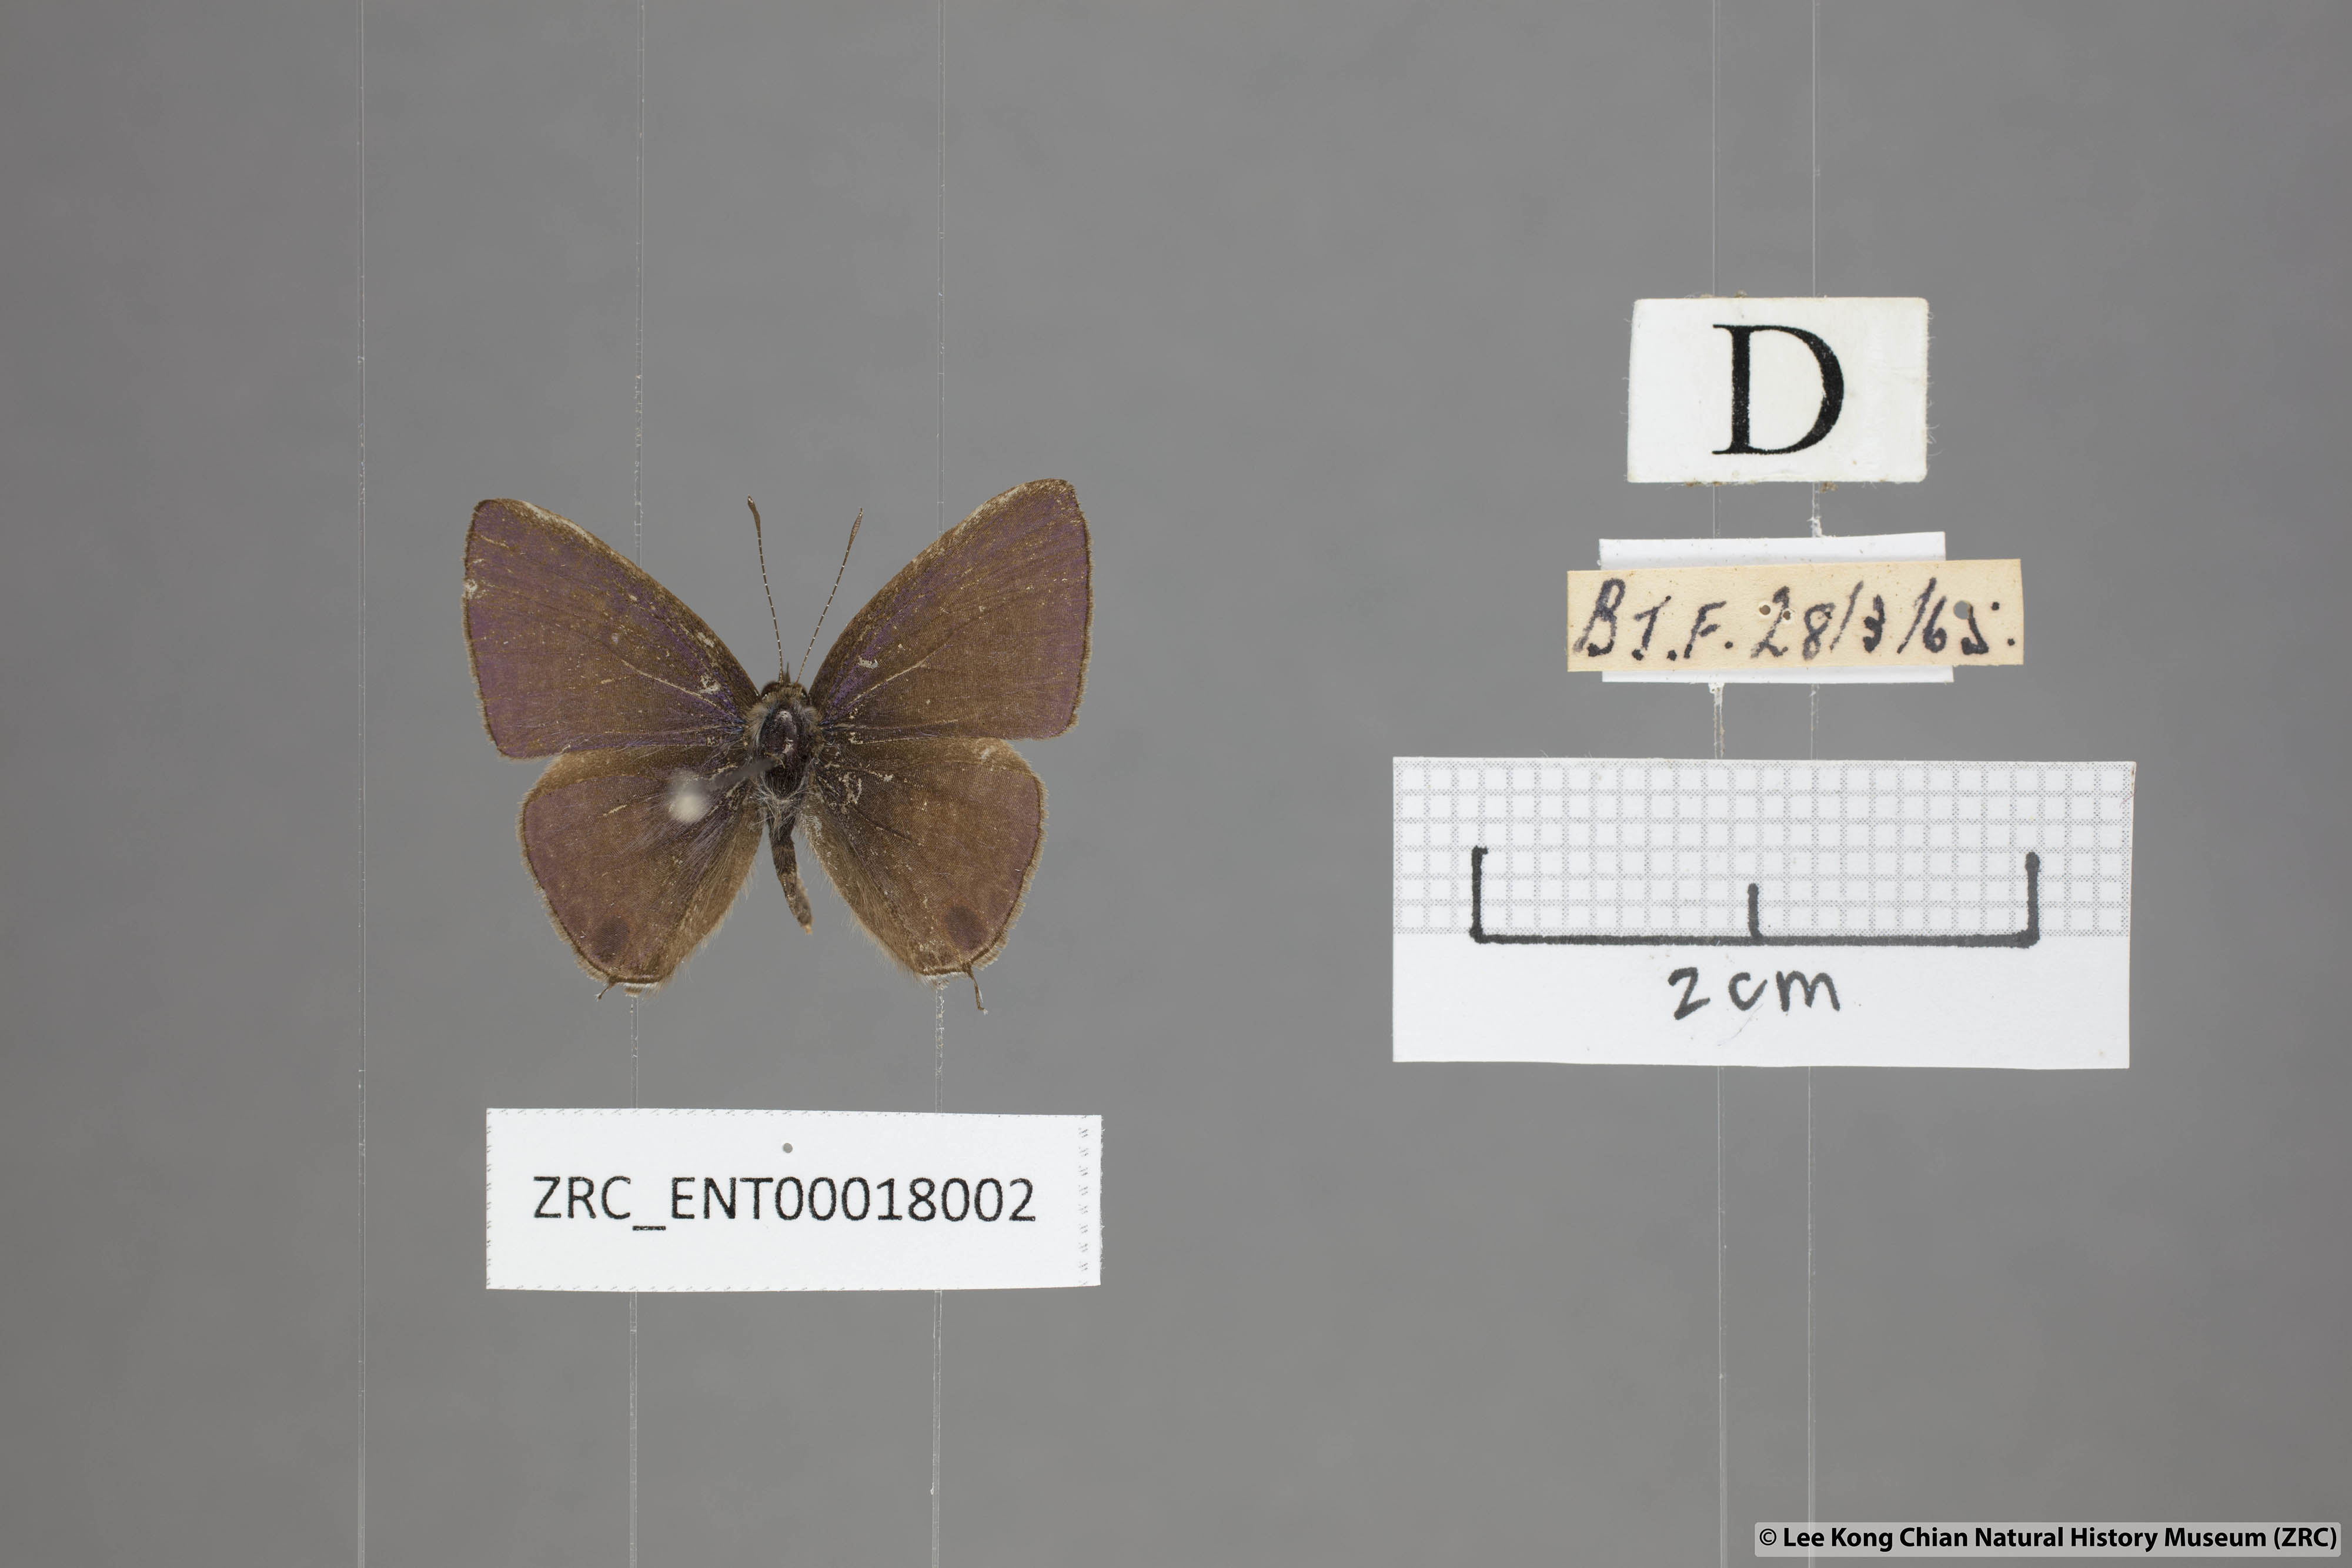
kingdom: Animalia
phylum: Arthropoda
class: Insecta
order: Lepidoptera
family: Lycaenidae
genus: Ionolyce
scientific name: Ionolyce helicon
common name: Pointed line blue
